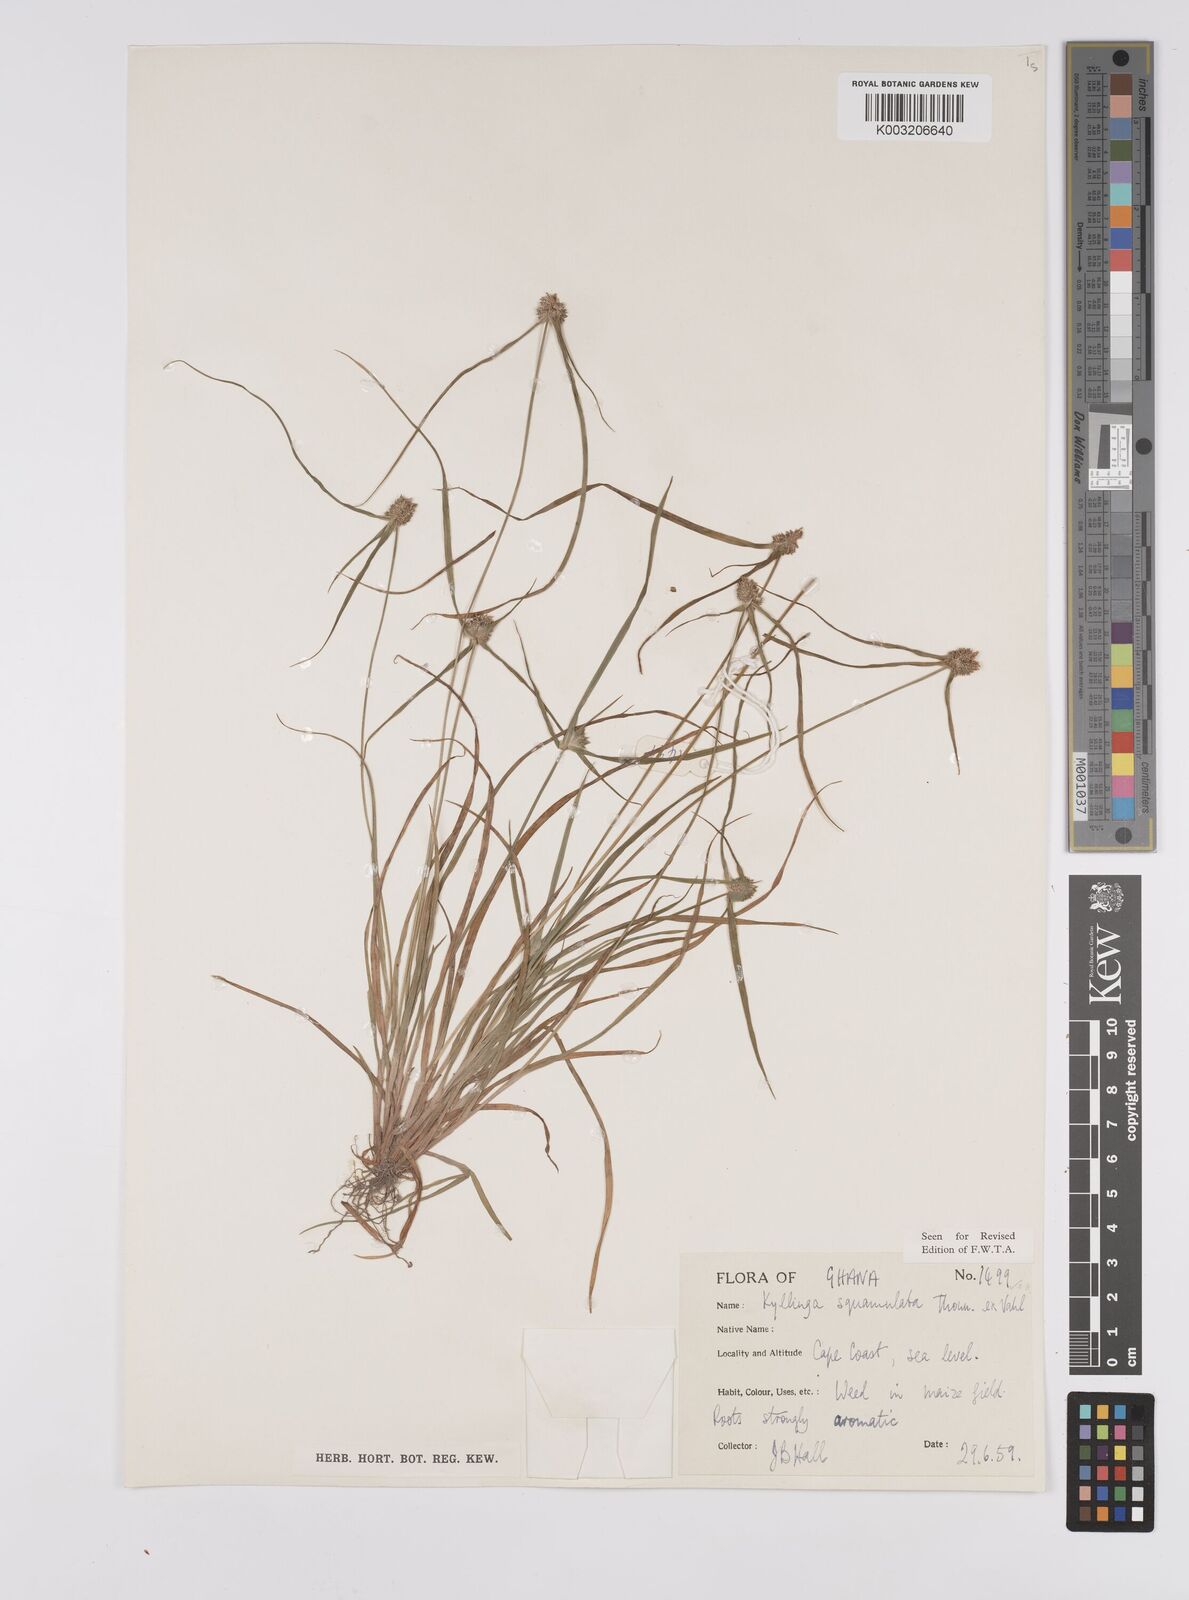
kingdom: Plantae
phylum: Tracheophyta
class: Liliopsida
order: Poales
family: Cyperaceae
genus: Cyperus
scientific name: Cyperus distans
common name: Slender cyperus
